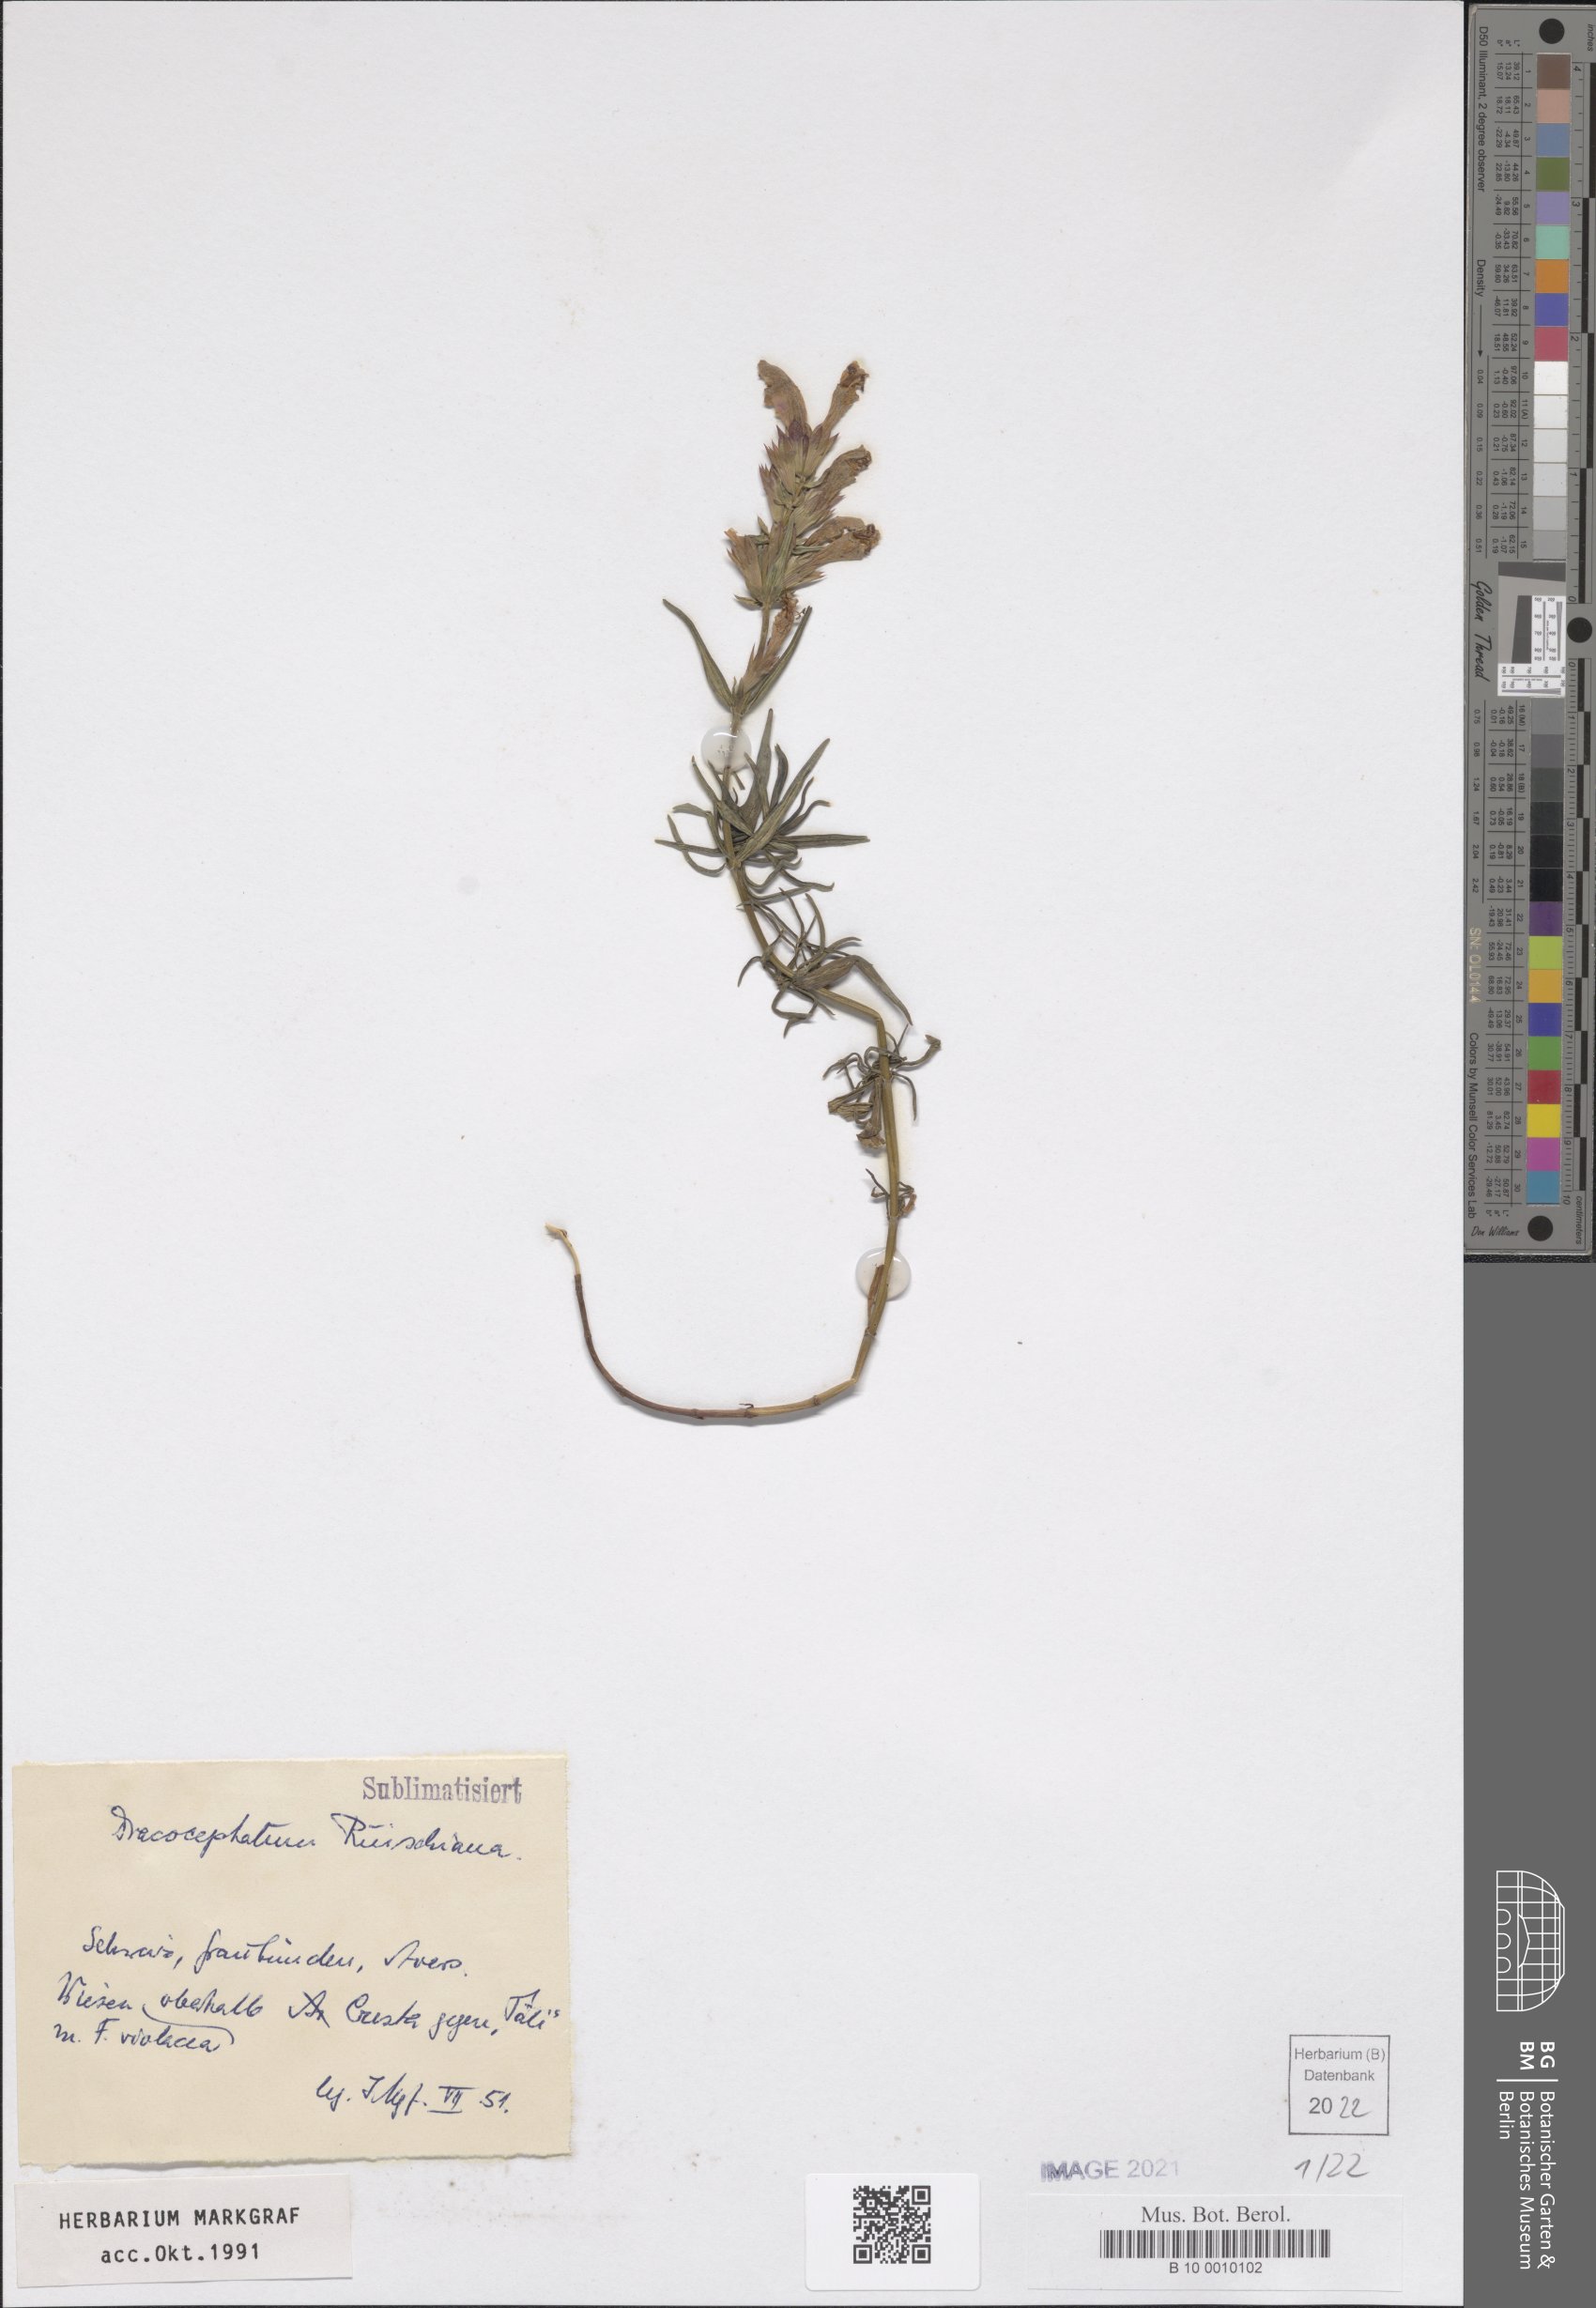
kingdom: Plantae
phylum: Tracheophyta
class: Magnoliopsida
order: Lamiales
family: Lamiaceae
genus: Dracocephalum
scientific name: Dracocephalum ruyschiana
